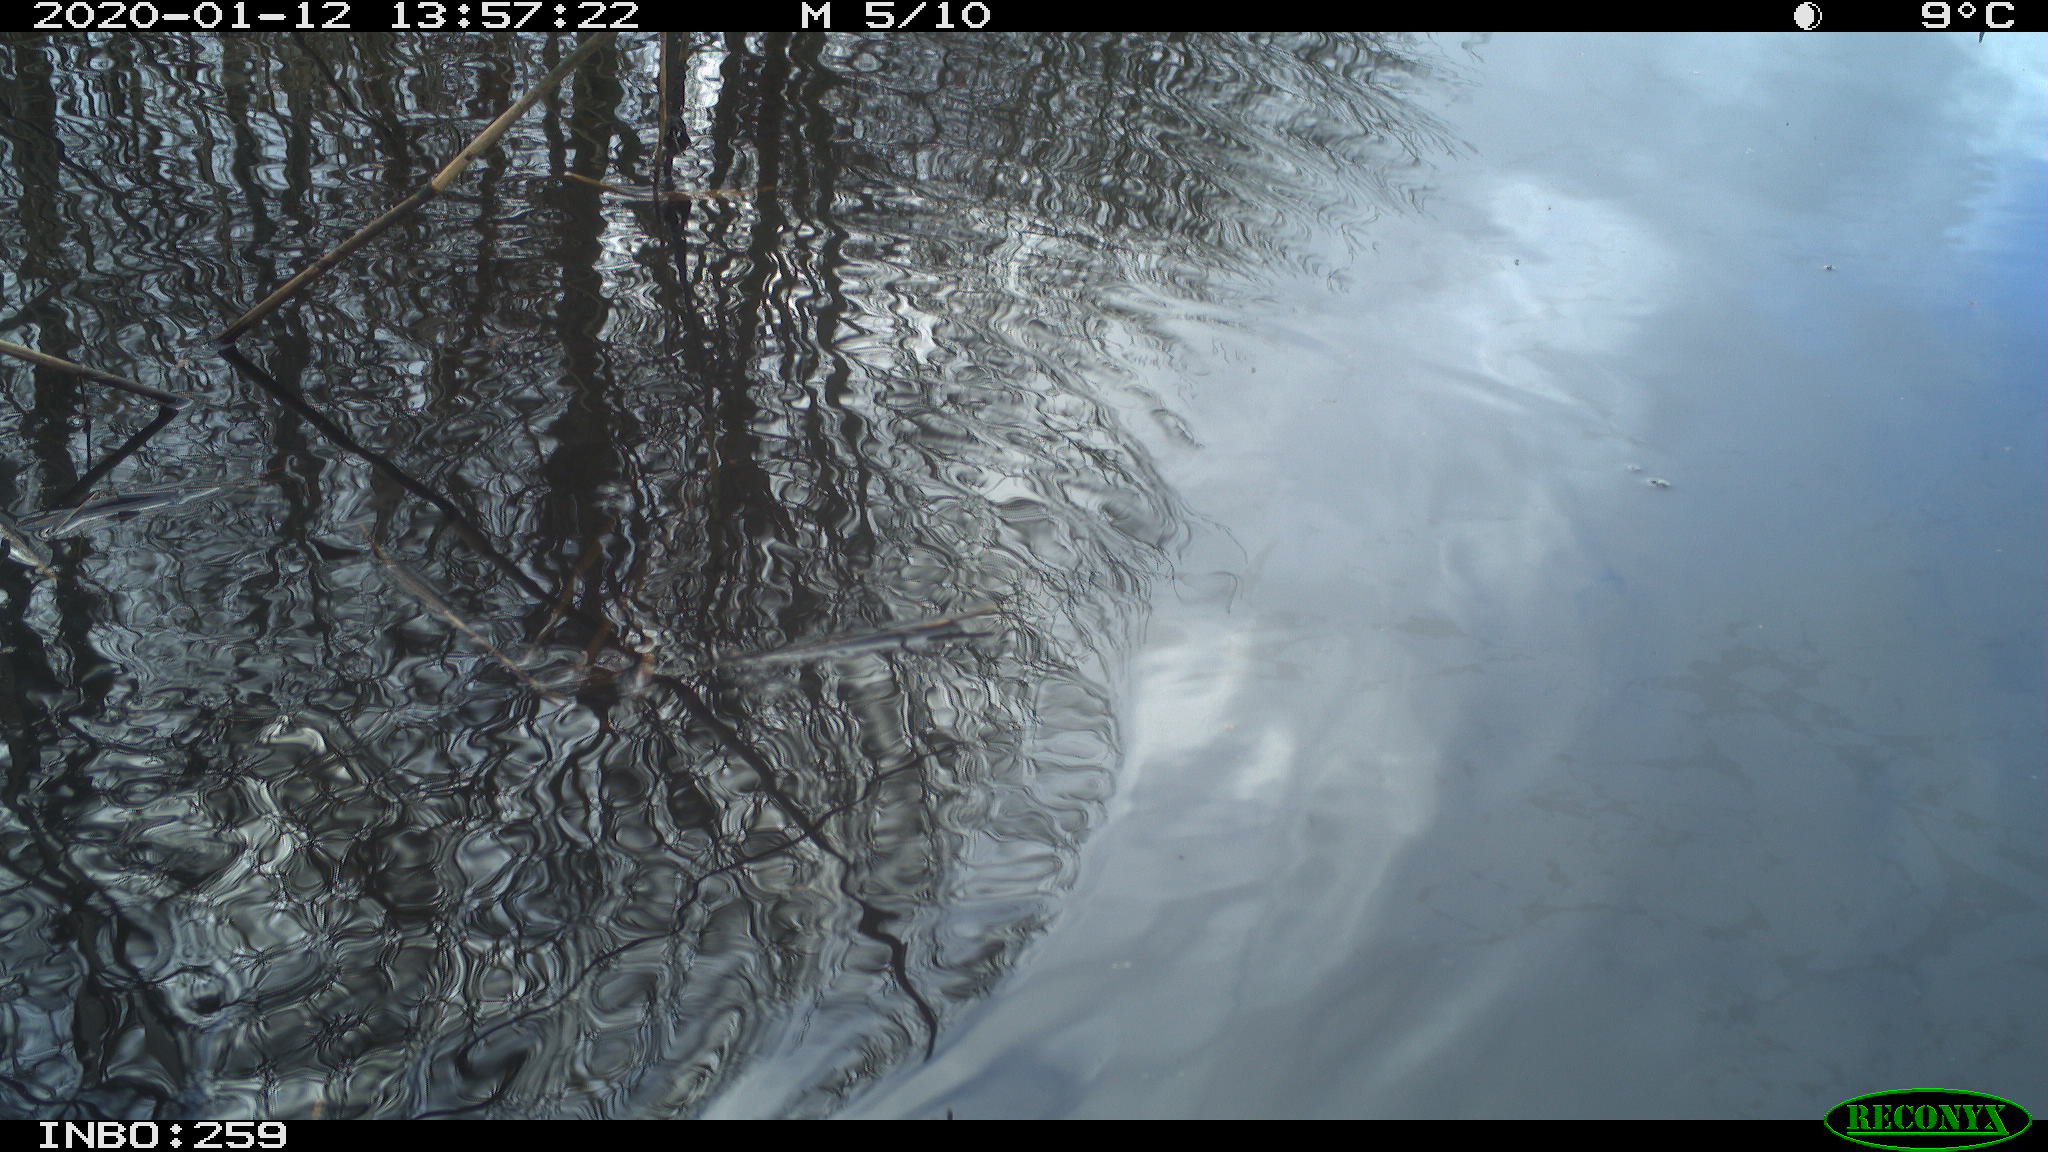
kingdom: Animalia
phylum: Chordata
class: Aves
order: Gruiformes
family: Rallidae
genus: Gallinula
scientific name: Gallinula chloropus
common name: Common moorhen
